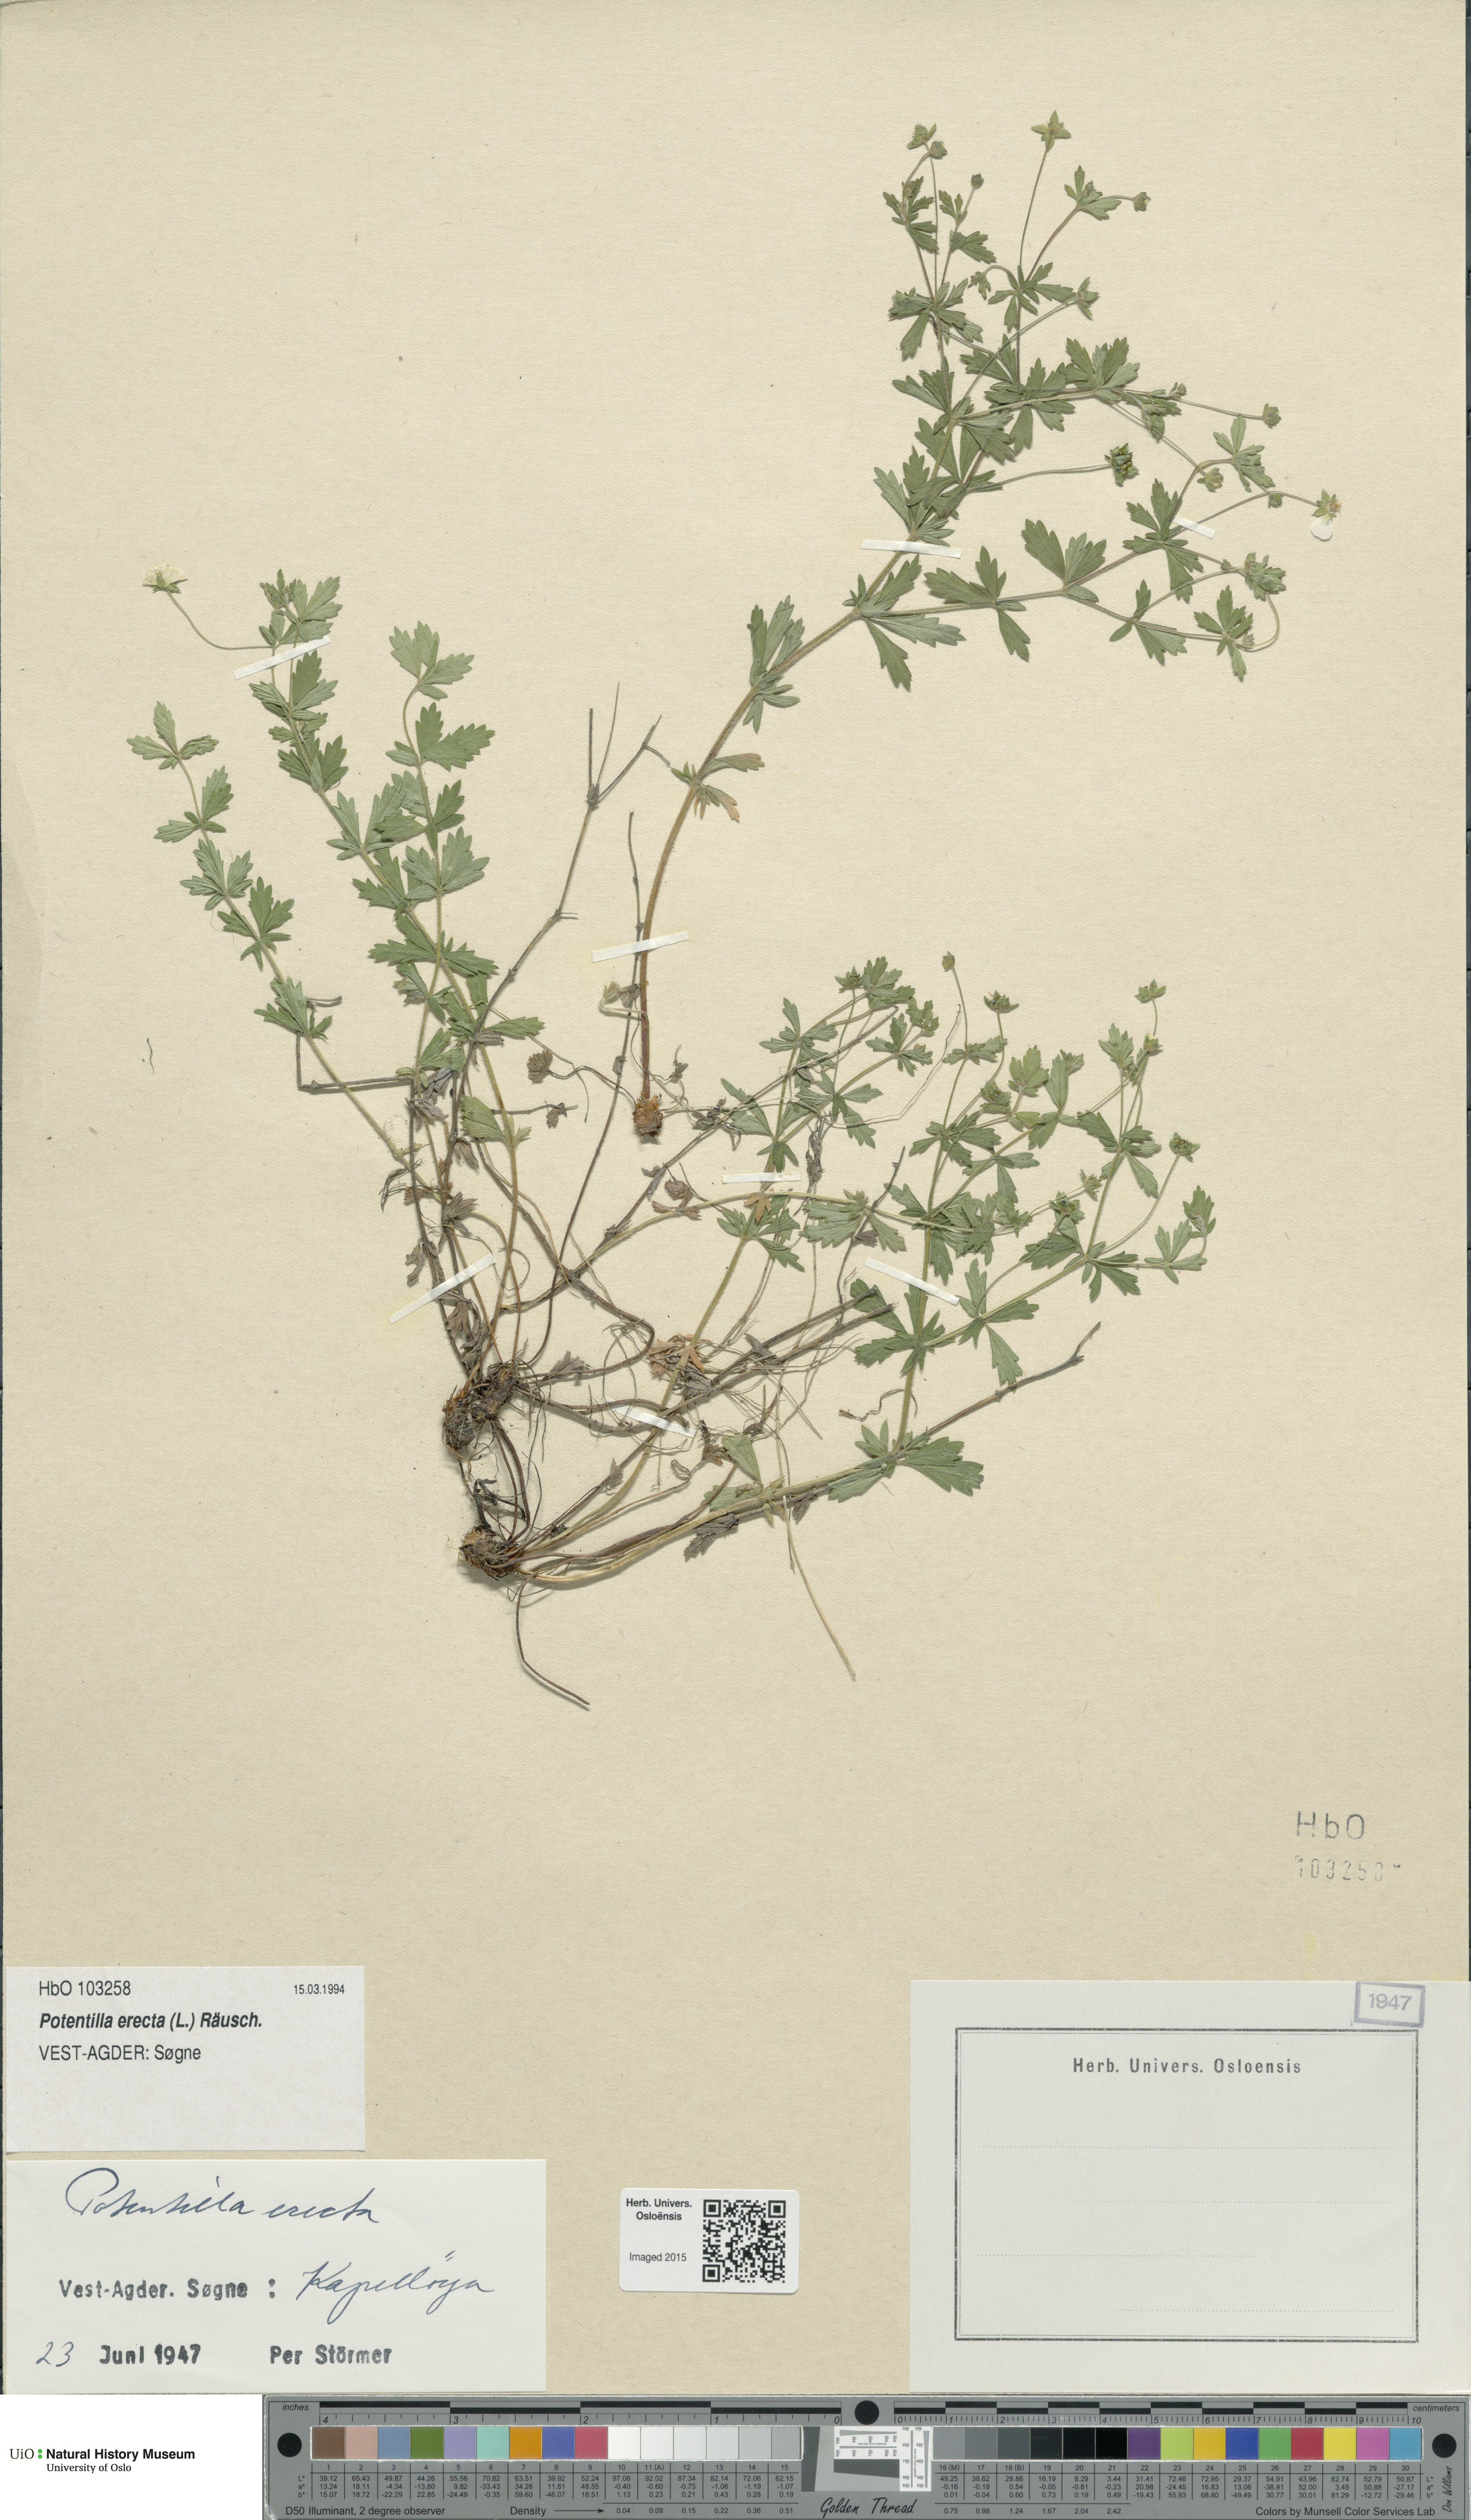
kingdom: Plantae
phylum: Tracheophyta
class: Magnoliopsida
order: Rosales
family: Rosaceae
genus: Potentilla
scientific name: Potentilla erecta
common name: Tormentil
